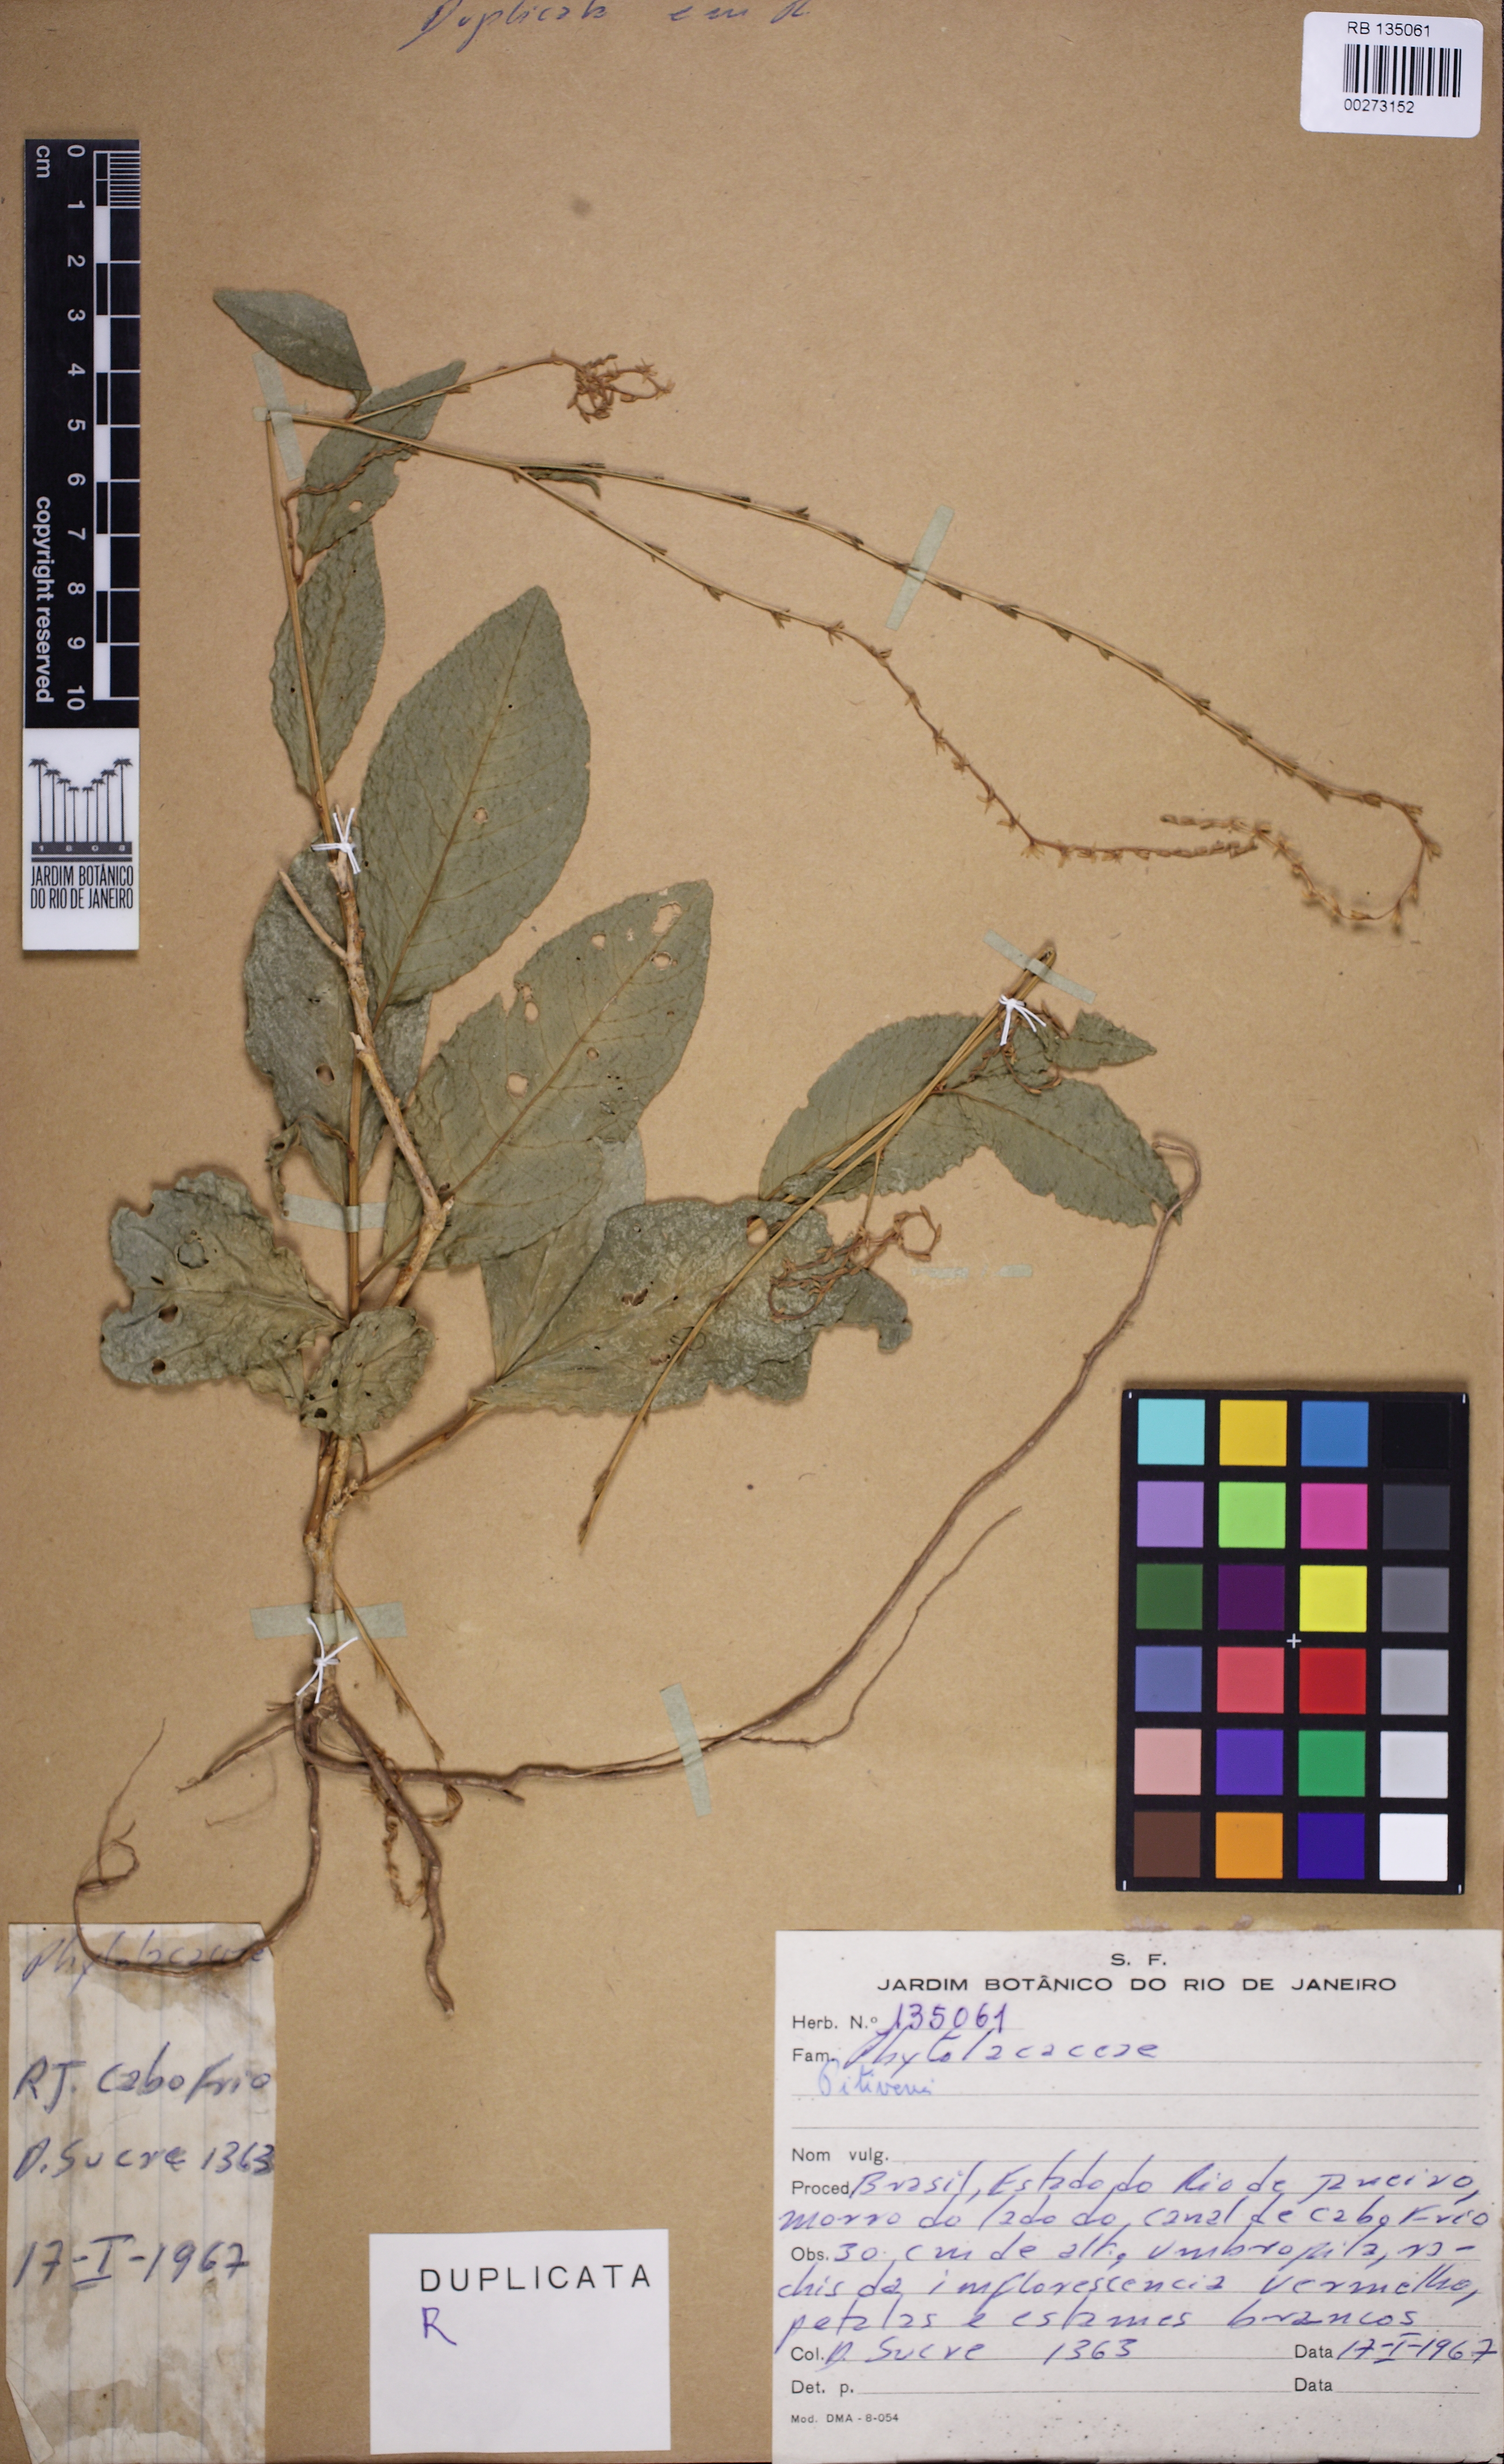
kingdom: Plantae
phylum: Tracheophyta
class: Magnoliopsida
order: Caryophyllales
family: Phytolaccaceae
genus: Petiveria
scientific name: Petiveria
